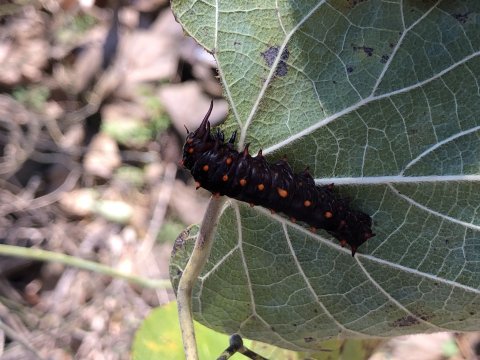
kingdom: Animalia
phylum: Arthropoda
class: Insecta
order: Lepidoptera
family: Papilionidae
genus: Battus
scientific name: Battus philenor
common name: Pipevine Swallowtail
